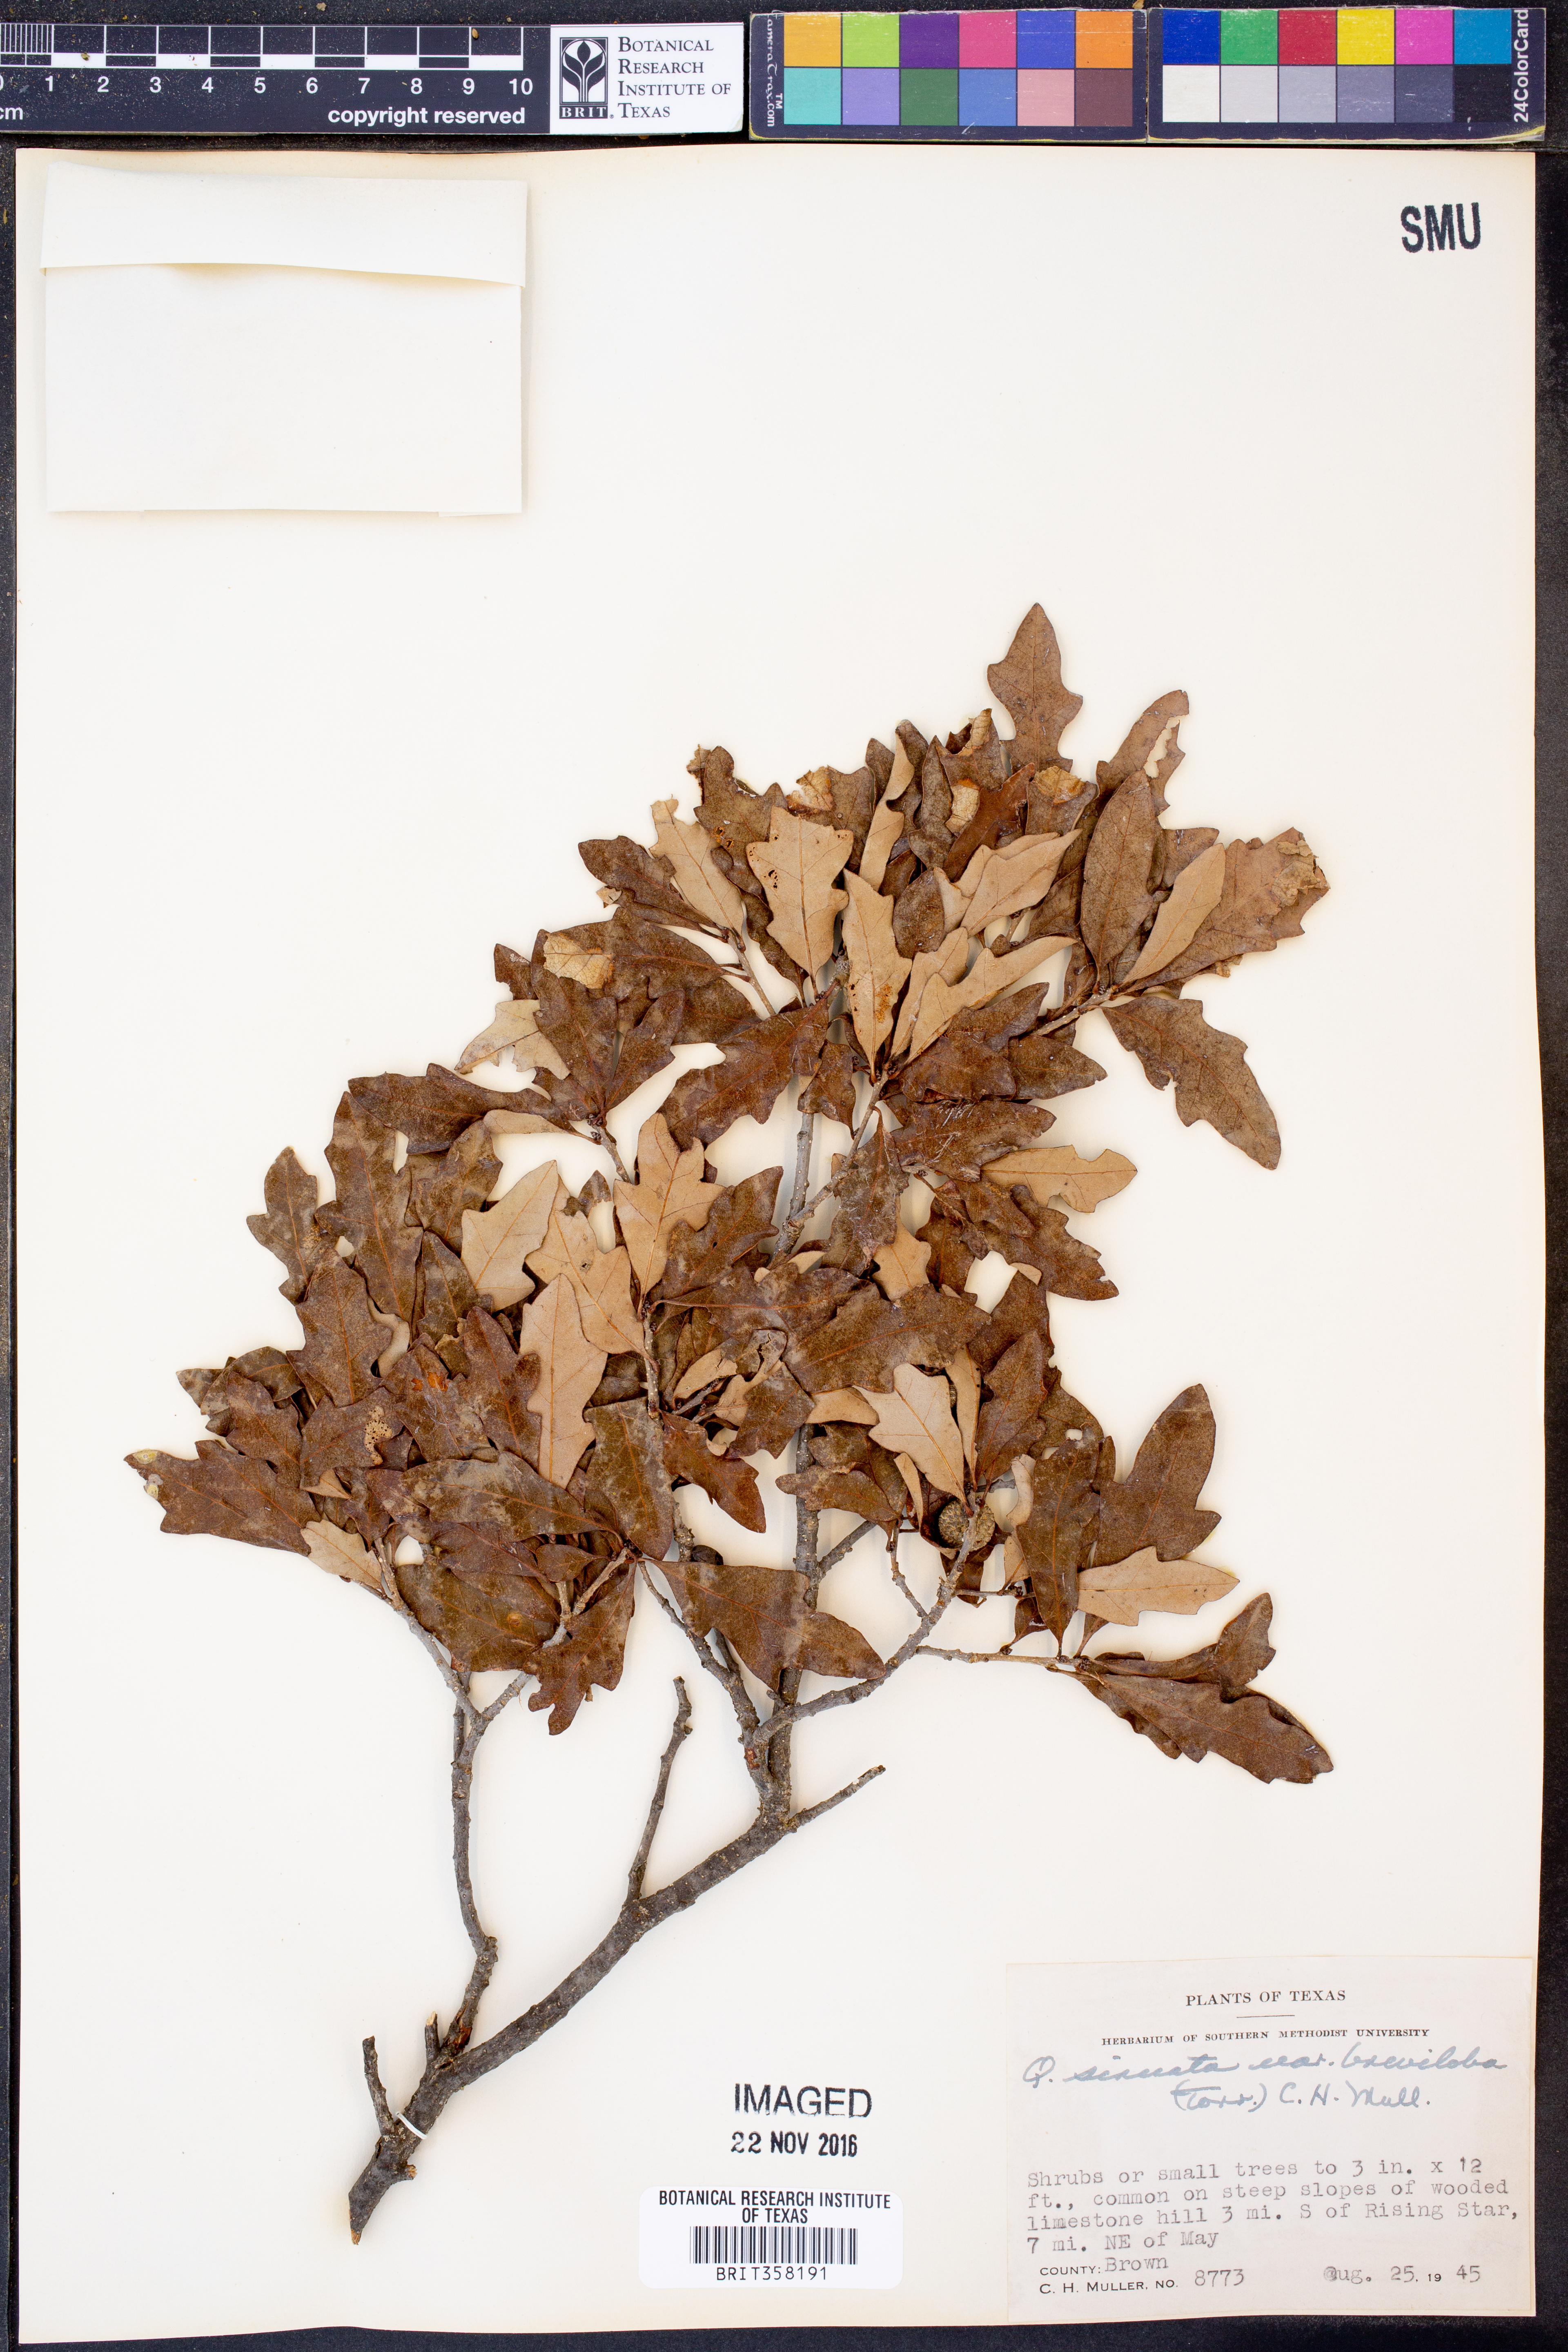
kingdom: Plantae
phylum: Tracheophyta
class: Magnoliopsida
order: Fagales
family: Fagaceae
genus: Quercus
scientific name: Quercus sinuata
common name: Durand oak
